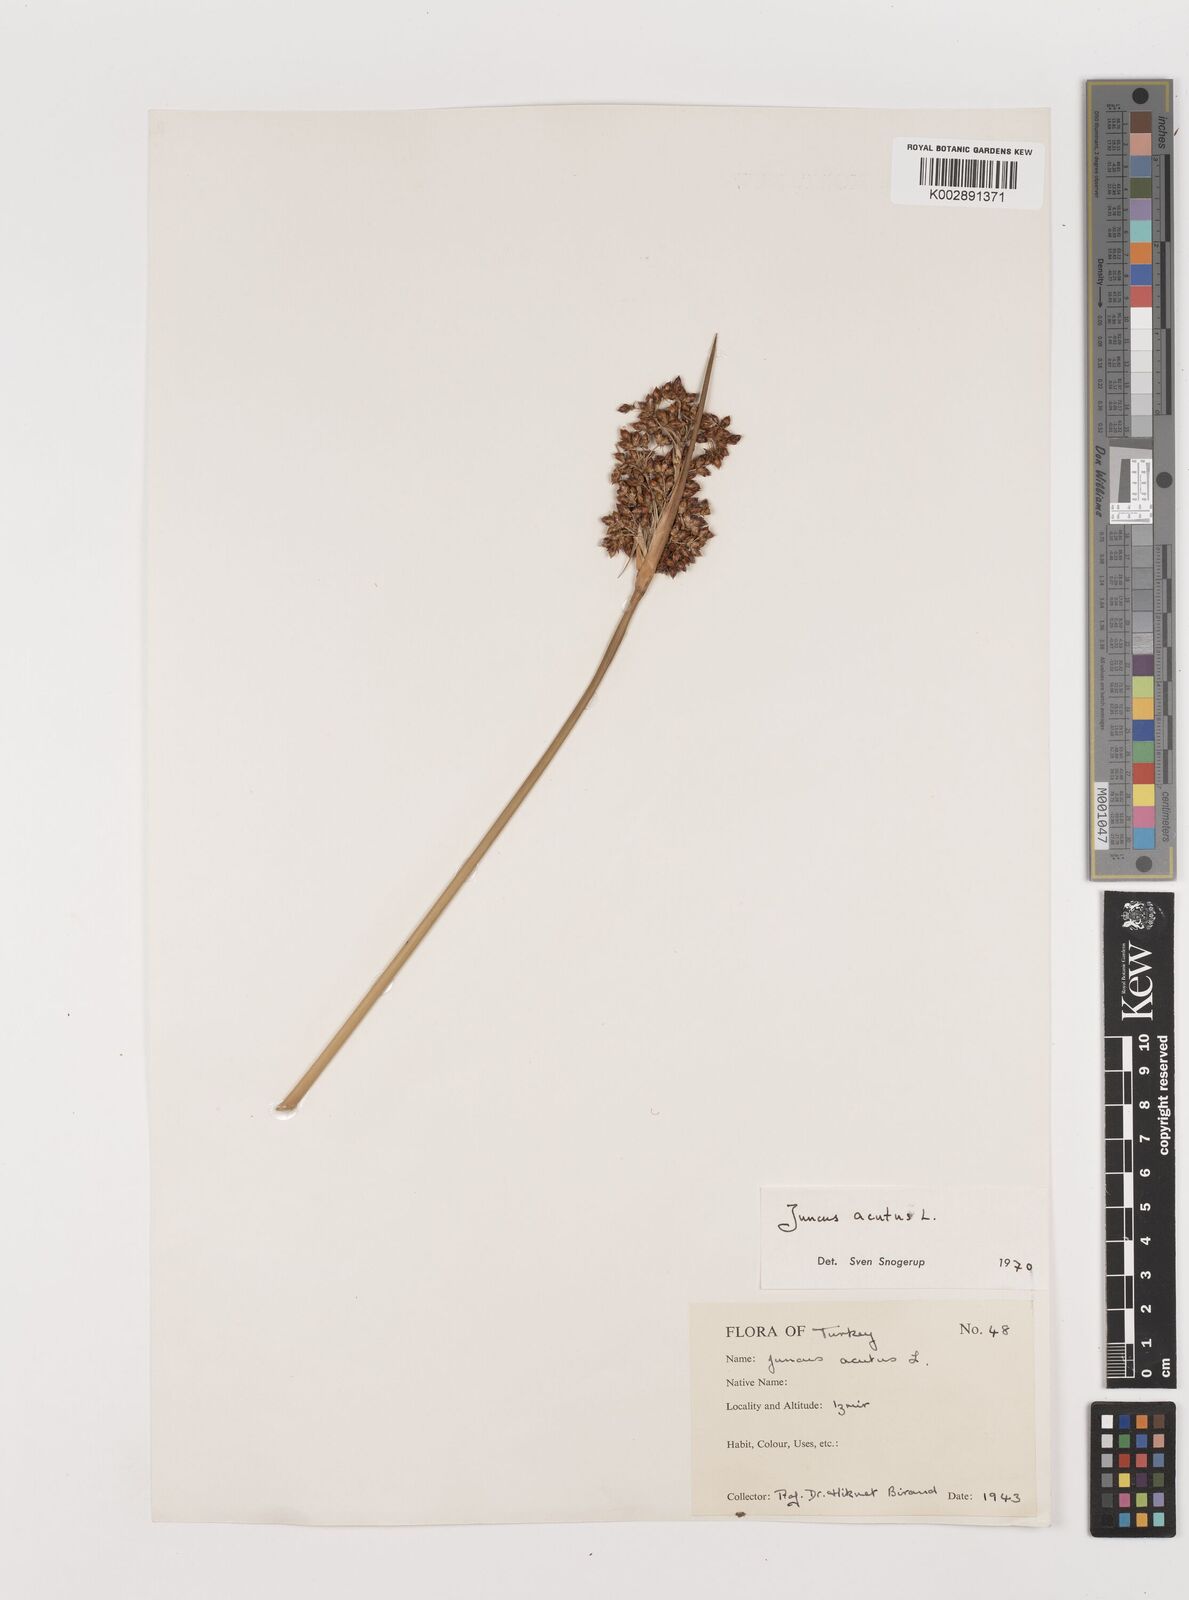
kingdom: Plantae
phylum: Tracheophyta
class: Liliopsida
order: Poales
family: Juncaceae
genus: Juncus
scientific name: Juncus acutus
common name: Sharp rush
